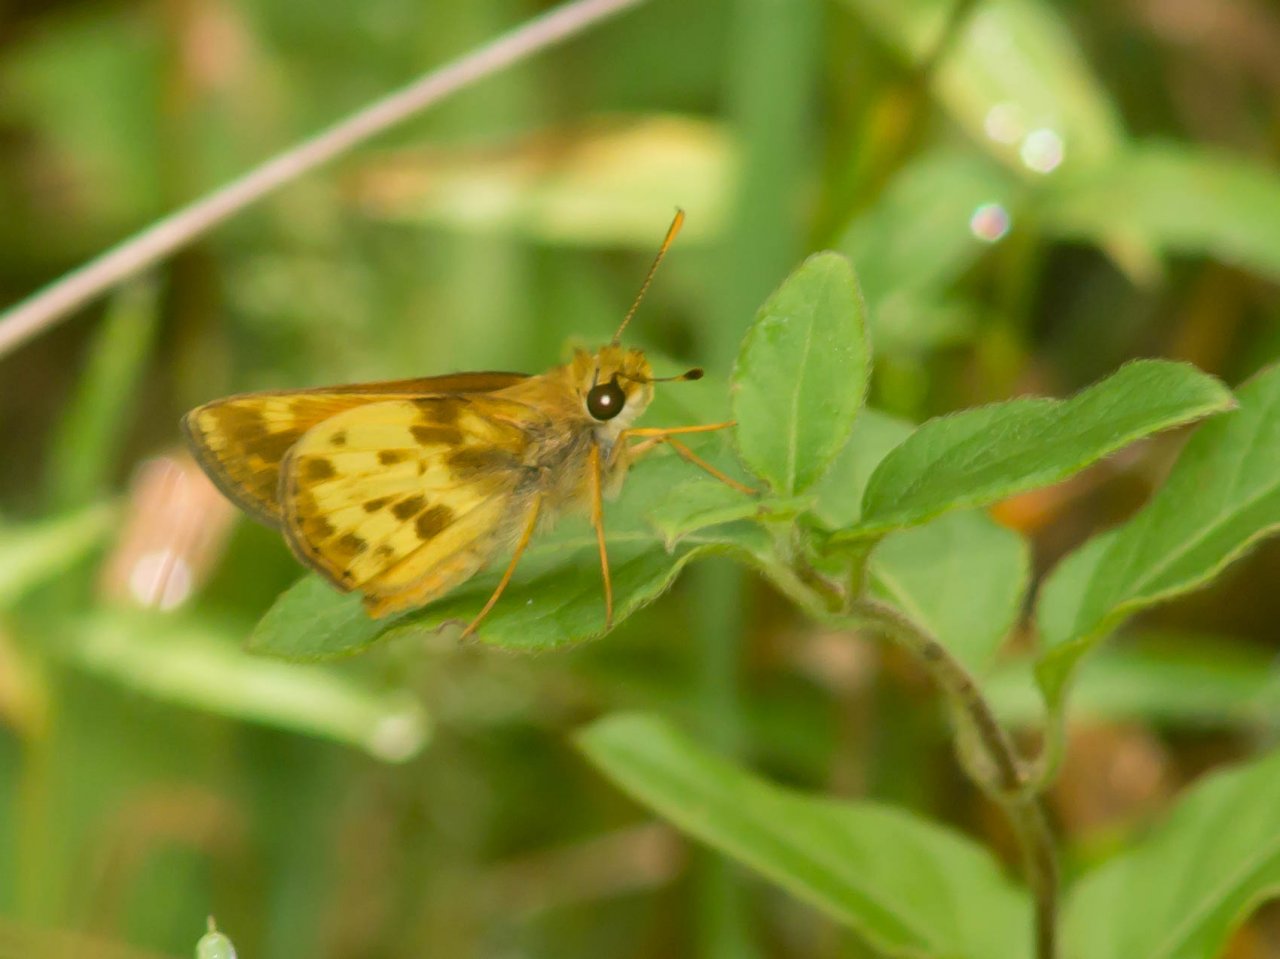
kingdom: Animalia
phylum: Arthropoda
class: Insecta
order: Lepidoptera
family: Hesperiidae
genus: Lon
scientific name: Lon zabulon
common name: Zabulon Skipper
